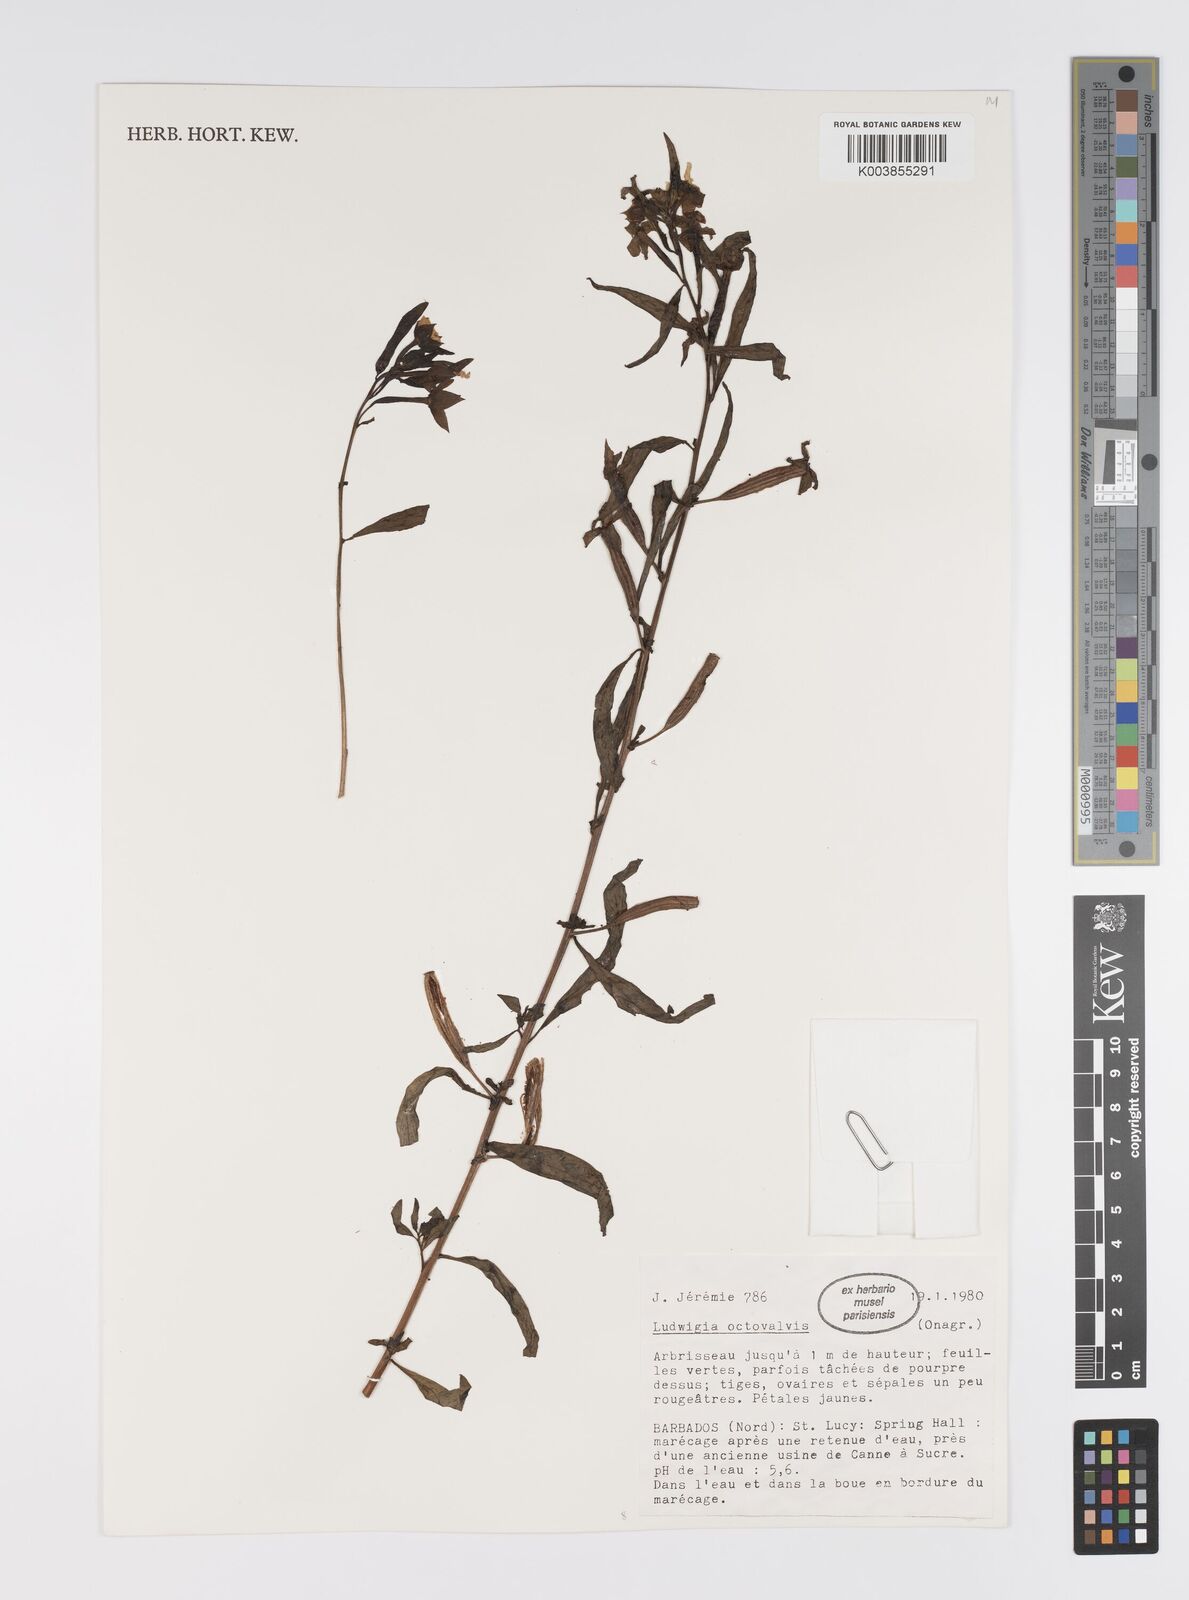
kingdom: Plantae
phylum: Tracheophyta
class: Magnoliopsida
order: Myrtales
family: Onagraceae
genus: Ludwigia
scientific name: Ludwigia octovalvis
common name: Water-primrose
